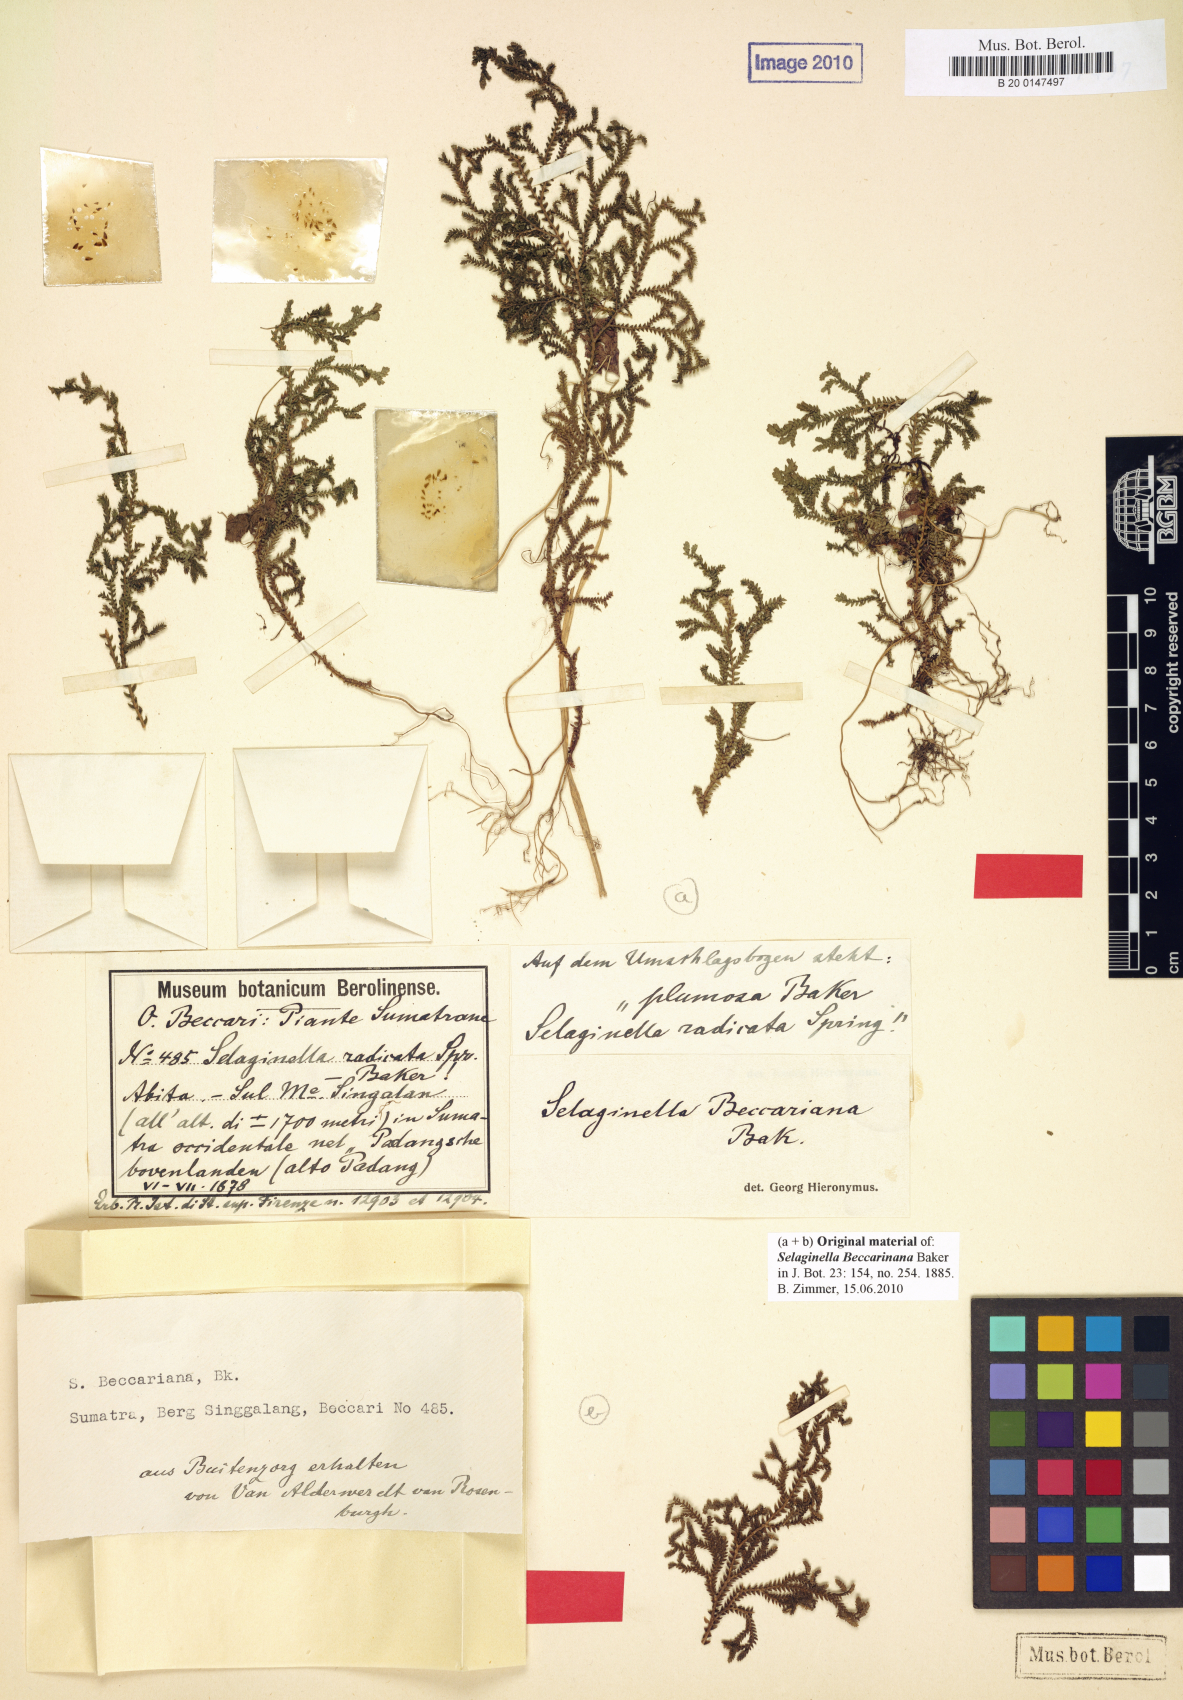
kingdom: Plantae
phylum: Tracheophyta
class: Lycopodiopsida
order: Selaginellales
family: Selaginellaceae
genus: Selaginella
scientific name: Selaginella beccariana
